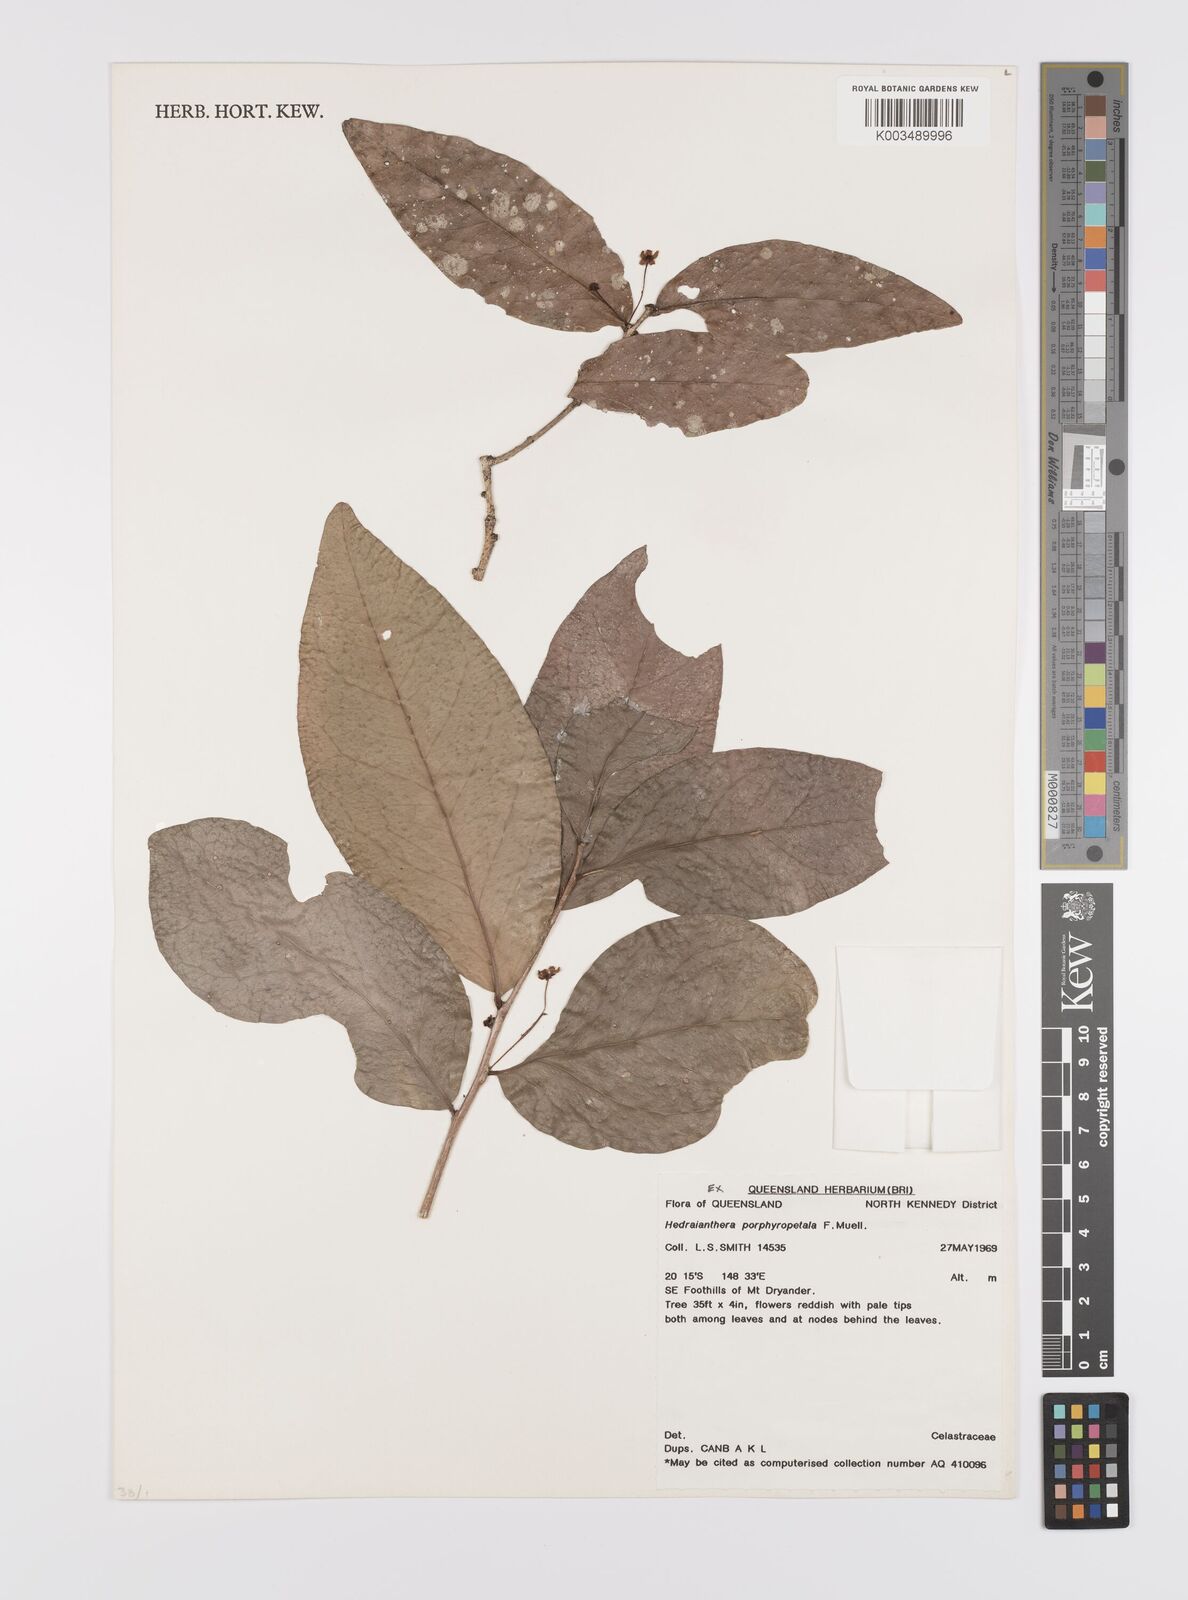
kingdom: Plantae
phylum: Tracheophyta
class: Magnoliopsida
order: Celastrales
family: Celastraceae
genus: Hedraianthera
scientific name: Hedraianthera porphyropetala
